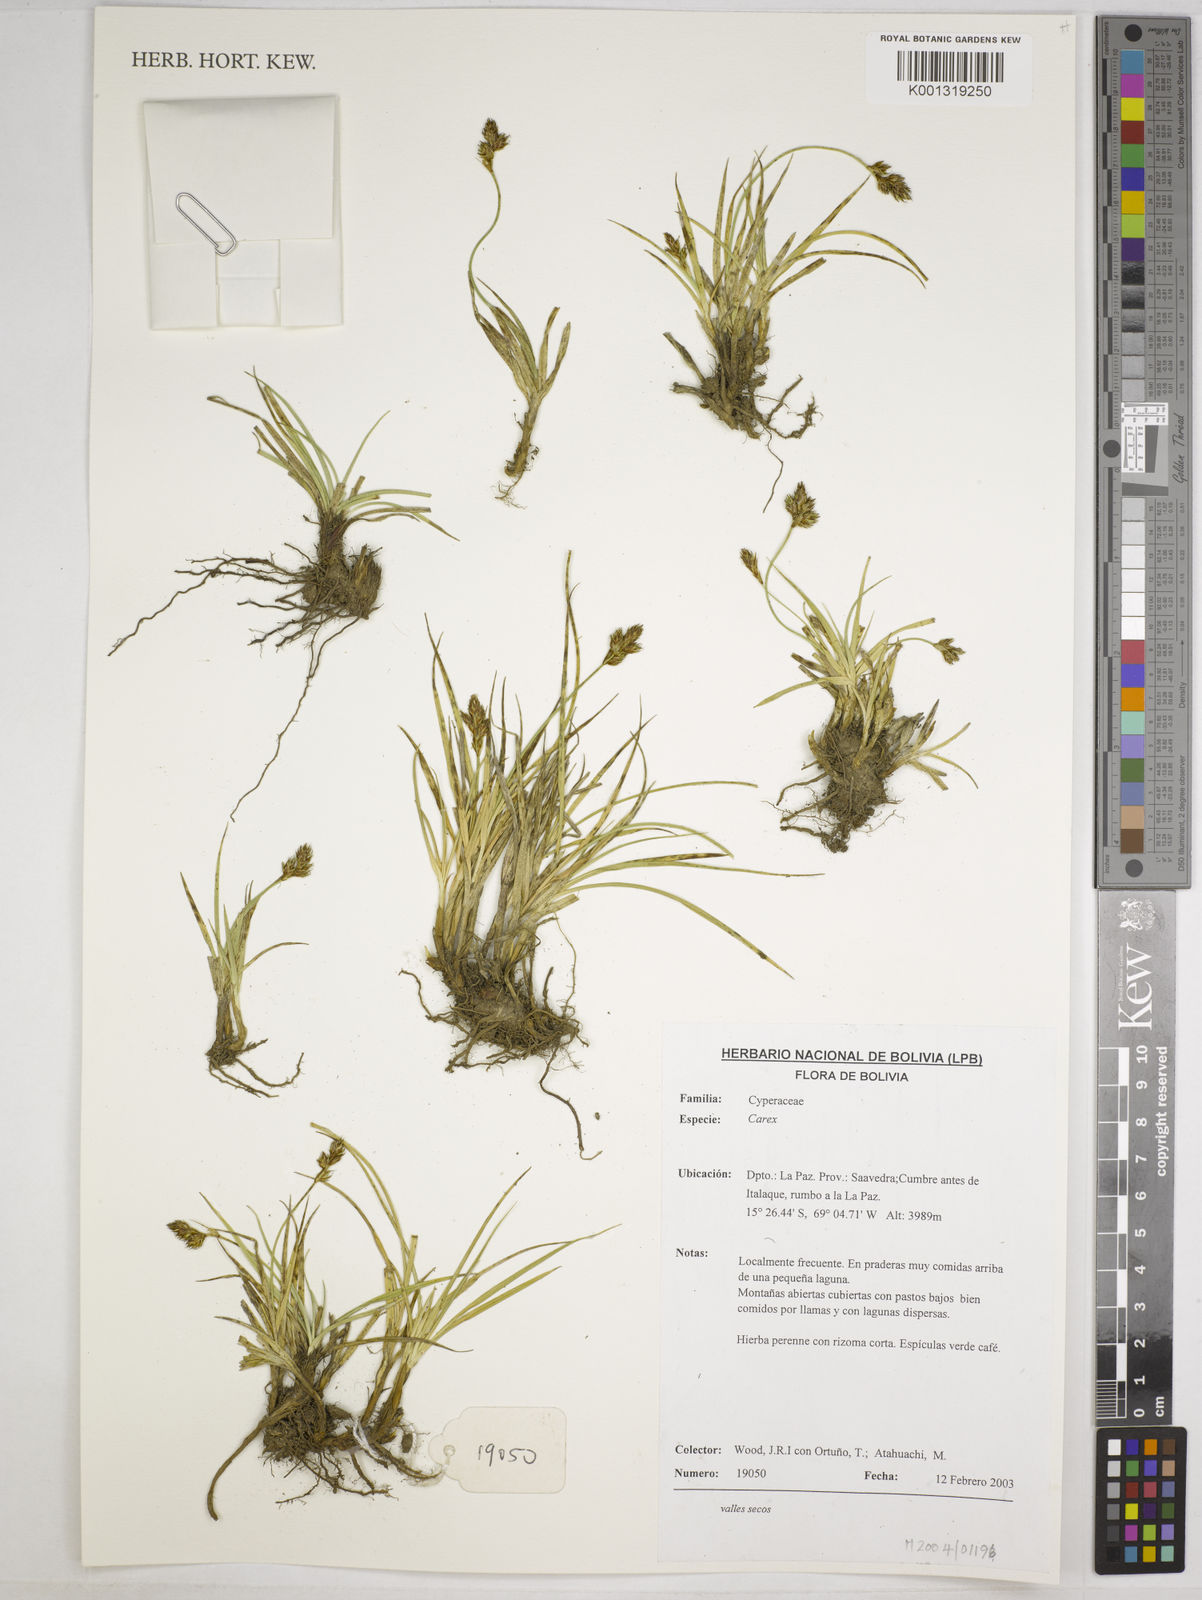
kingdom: Plantae
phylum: Tracheophyta
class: Liliopsida
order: Poales
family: Cyperaceae
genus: Carex
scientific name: Carex mandoniana
